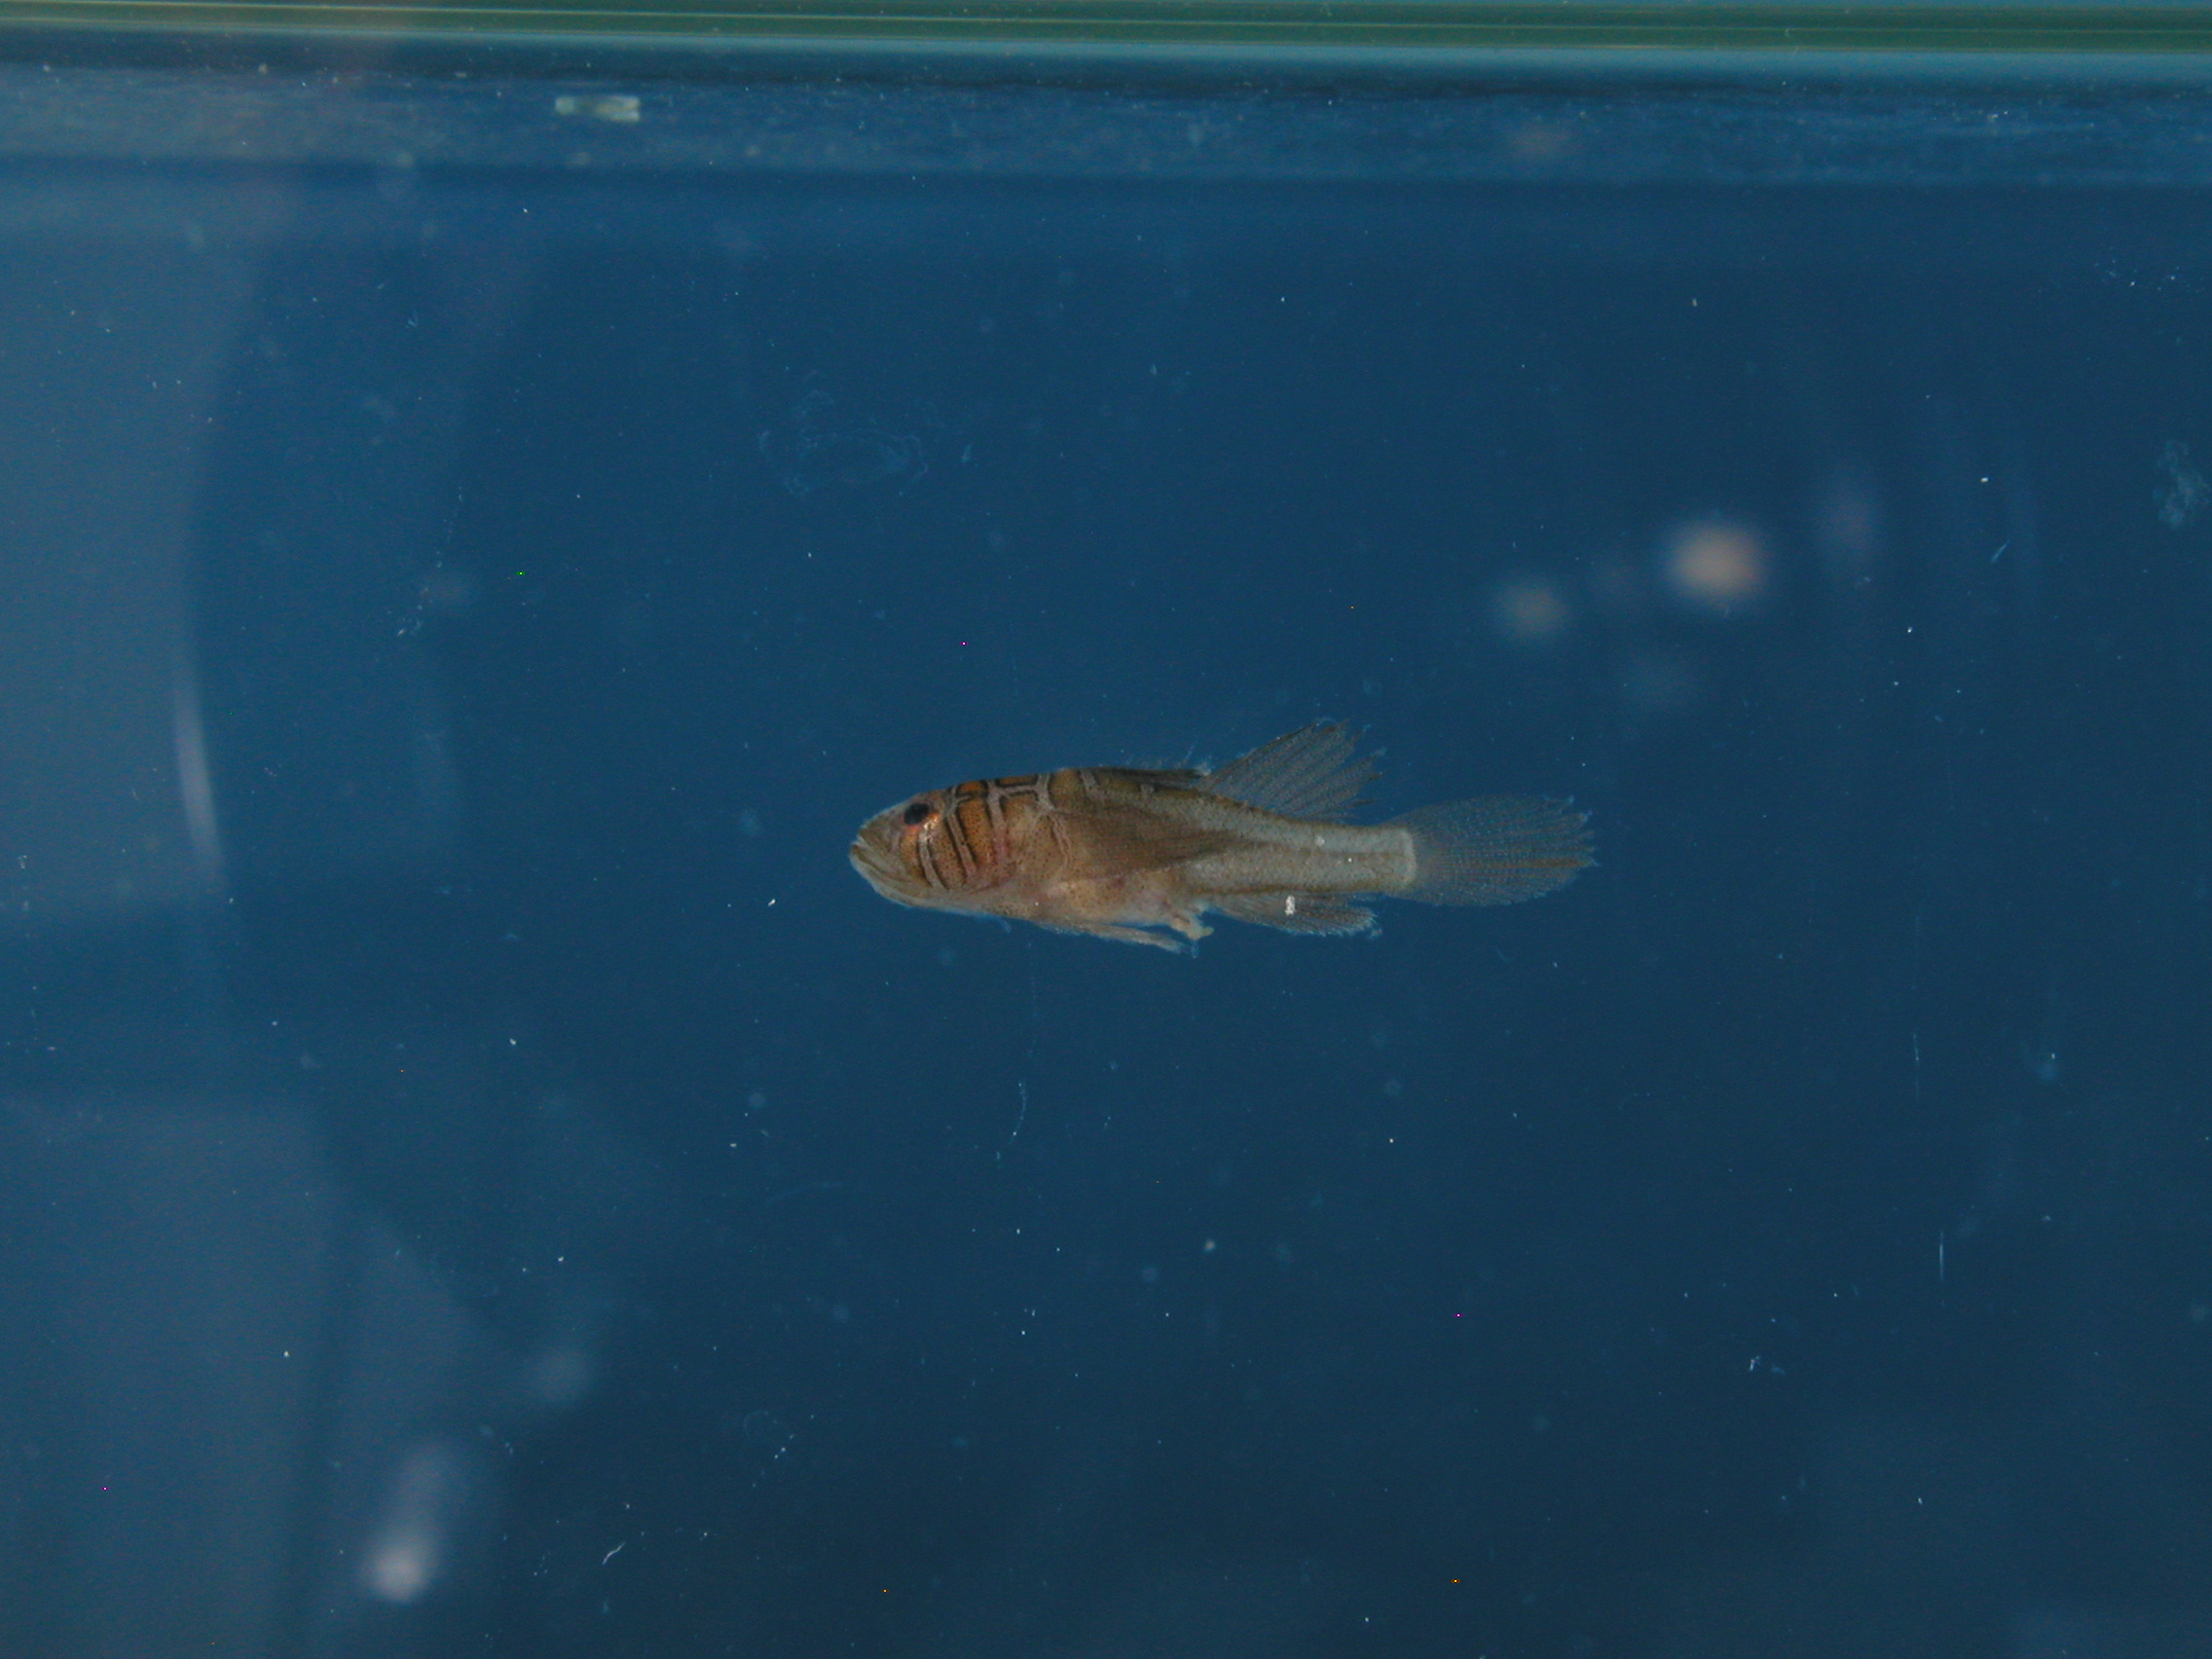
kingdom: Animalia
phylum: Chordata
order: Perciformes
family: Gobiidae
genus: Priolepis
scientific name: Priolepis compita
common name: Crossroads goby
